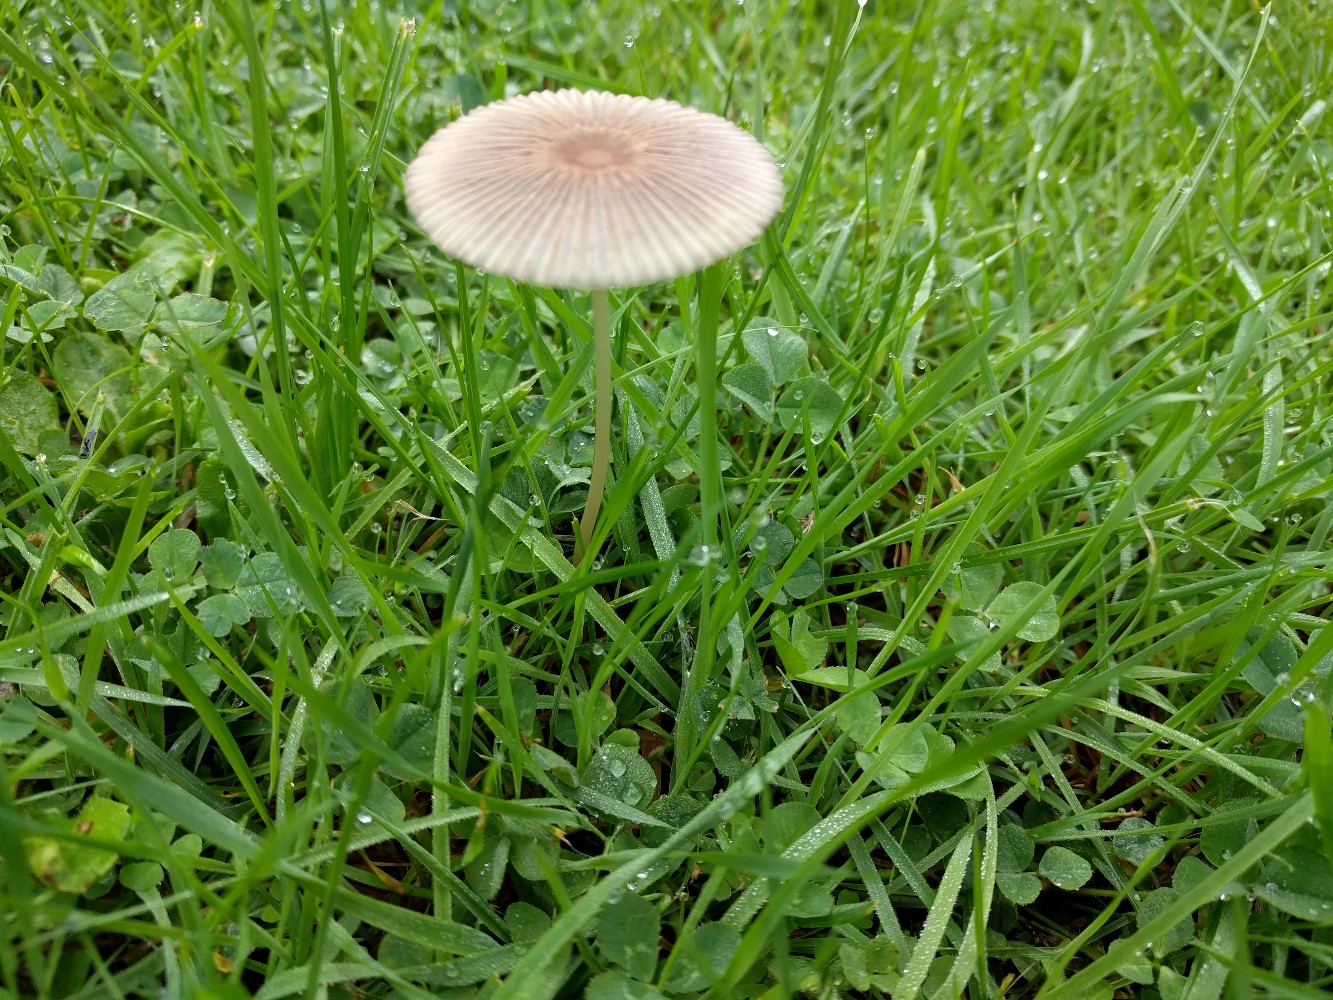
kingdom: Fungi
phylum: Basidiomycota
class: Agaricomycetes
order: Agaricales
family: Psathyrellaceae
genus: Parasola
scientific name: Parasola plicatilis
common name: plæne-hjulhat
